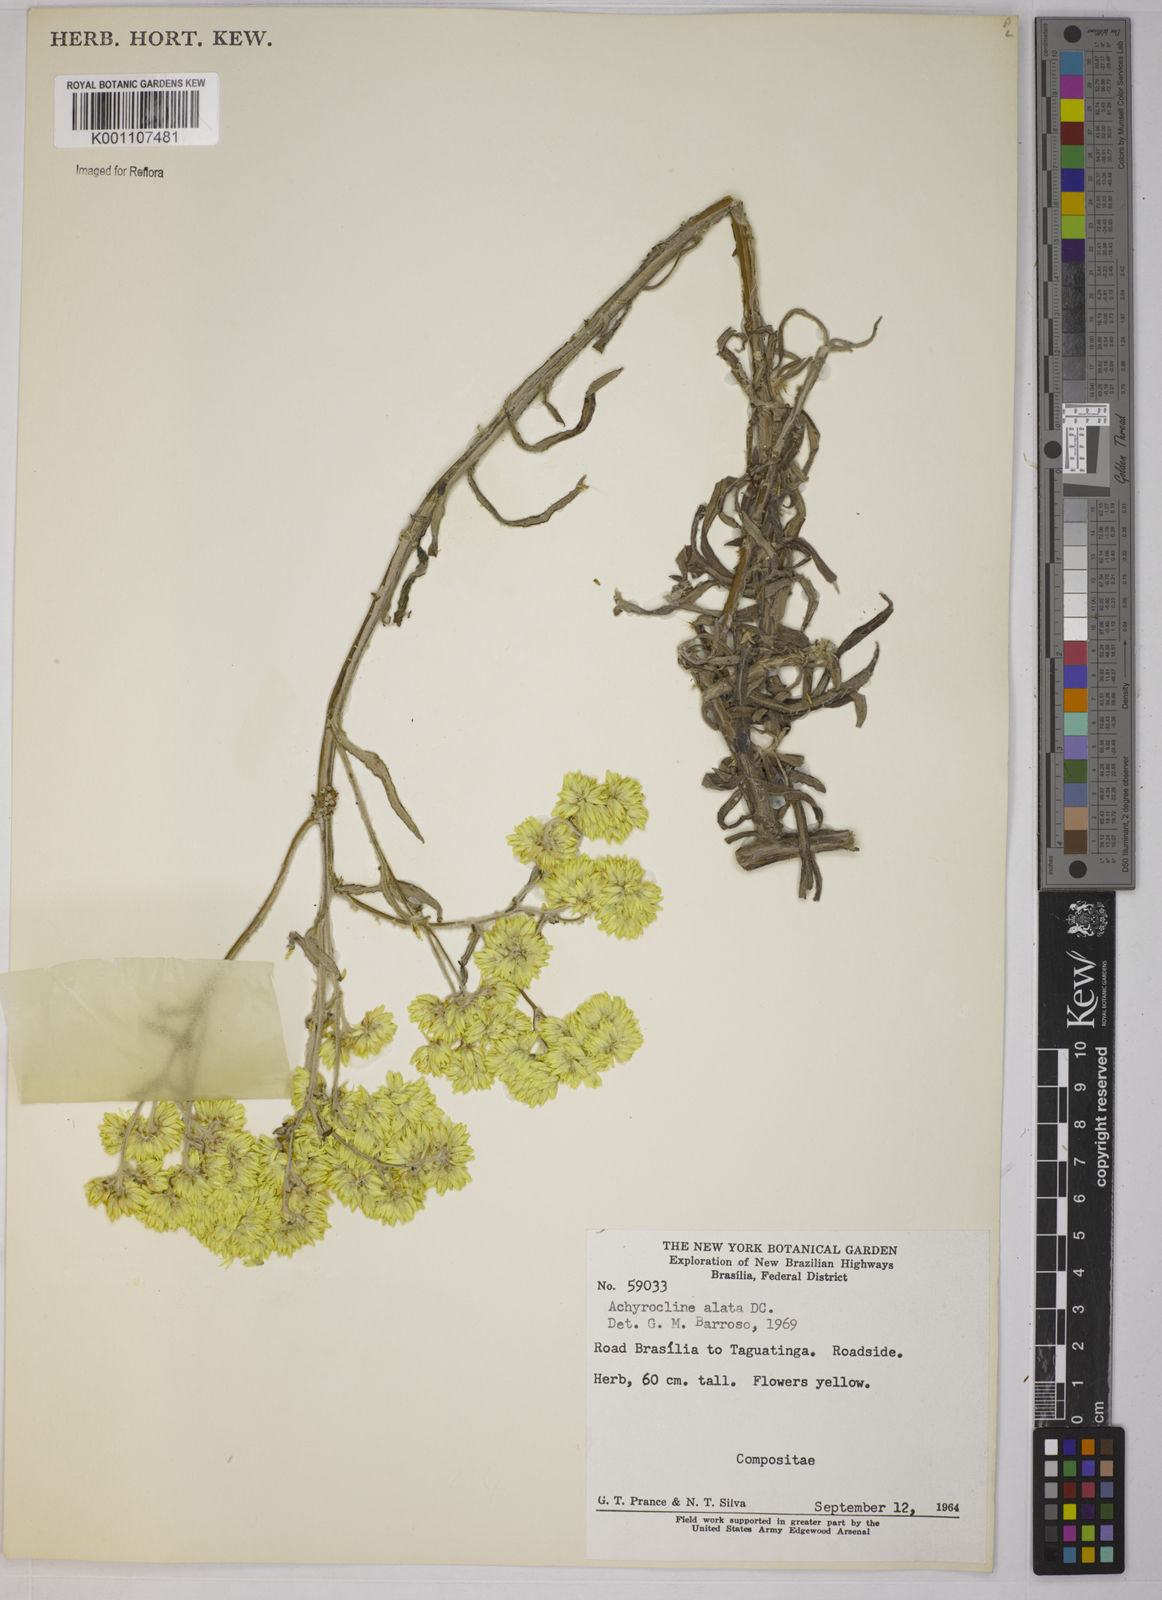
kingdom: Plantae
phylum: Tracheophyta
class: Magnoliopsida
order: Asterales
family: Asteraceae
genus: Achyrocline
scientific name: Achyrocline alata
